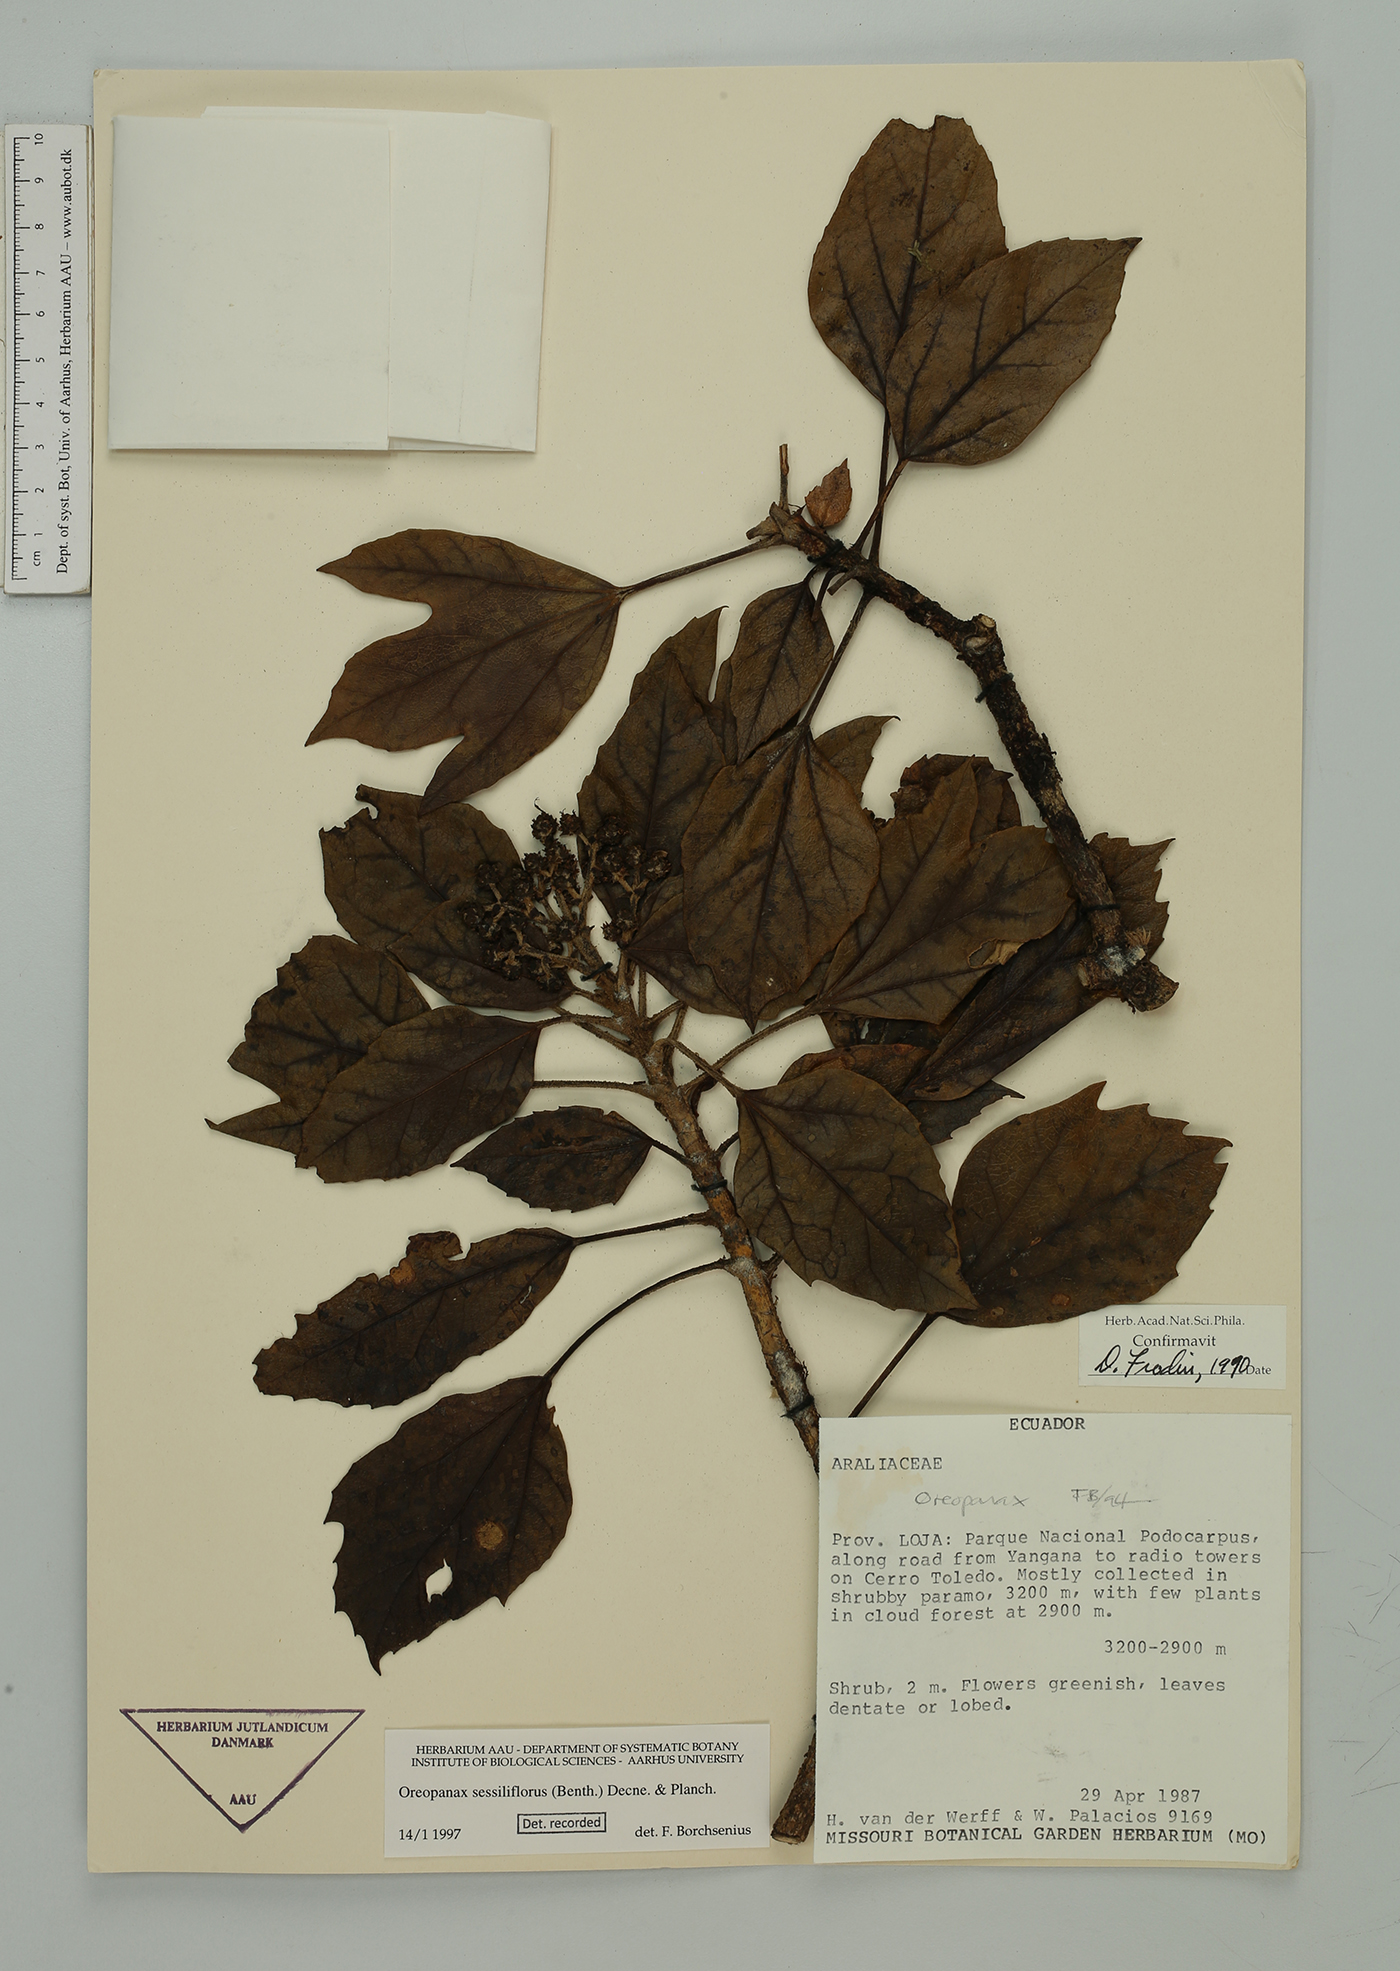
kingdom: Plantae
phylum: Tracheophyta
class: Magnoliopsida
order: Apiales
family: Araliaceae
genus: Oreopanax
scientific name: Oreopanax sessiliflorus
